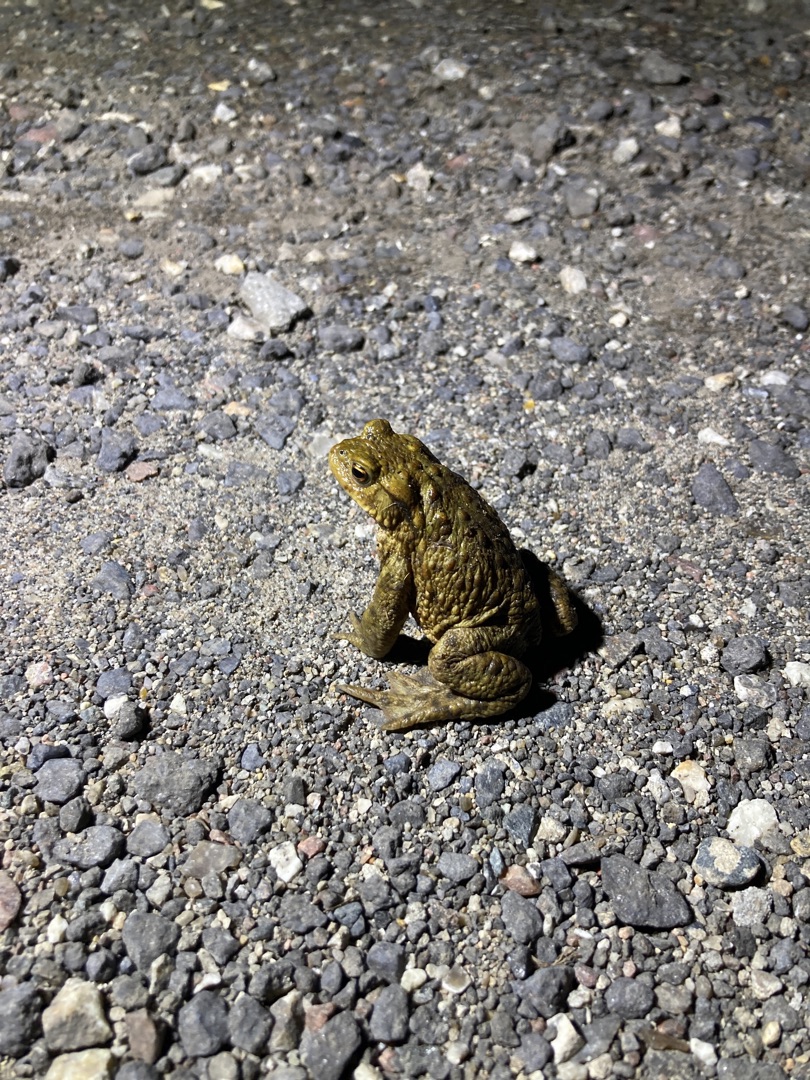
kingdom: Animalia
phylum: Chordata
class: Amphibia
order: Anura
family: Bufonidae
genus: Bufo
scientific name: Bufo bufo
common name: Skrubtudse
